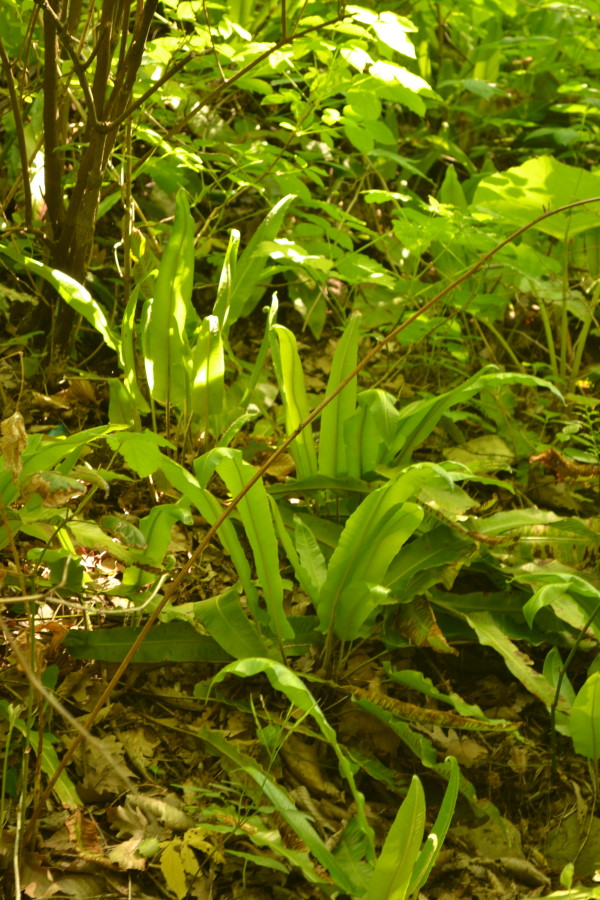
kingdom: Plantae
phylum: Tracheophyta
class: Polypodiopsida
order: Polypodiales
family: Aspleniaceae
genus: Asplenium
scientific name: Asplenium scolopendrium
